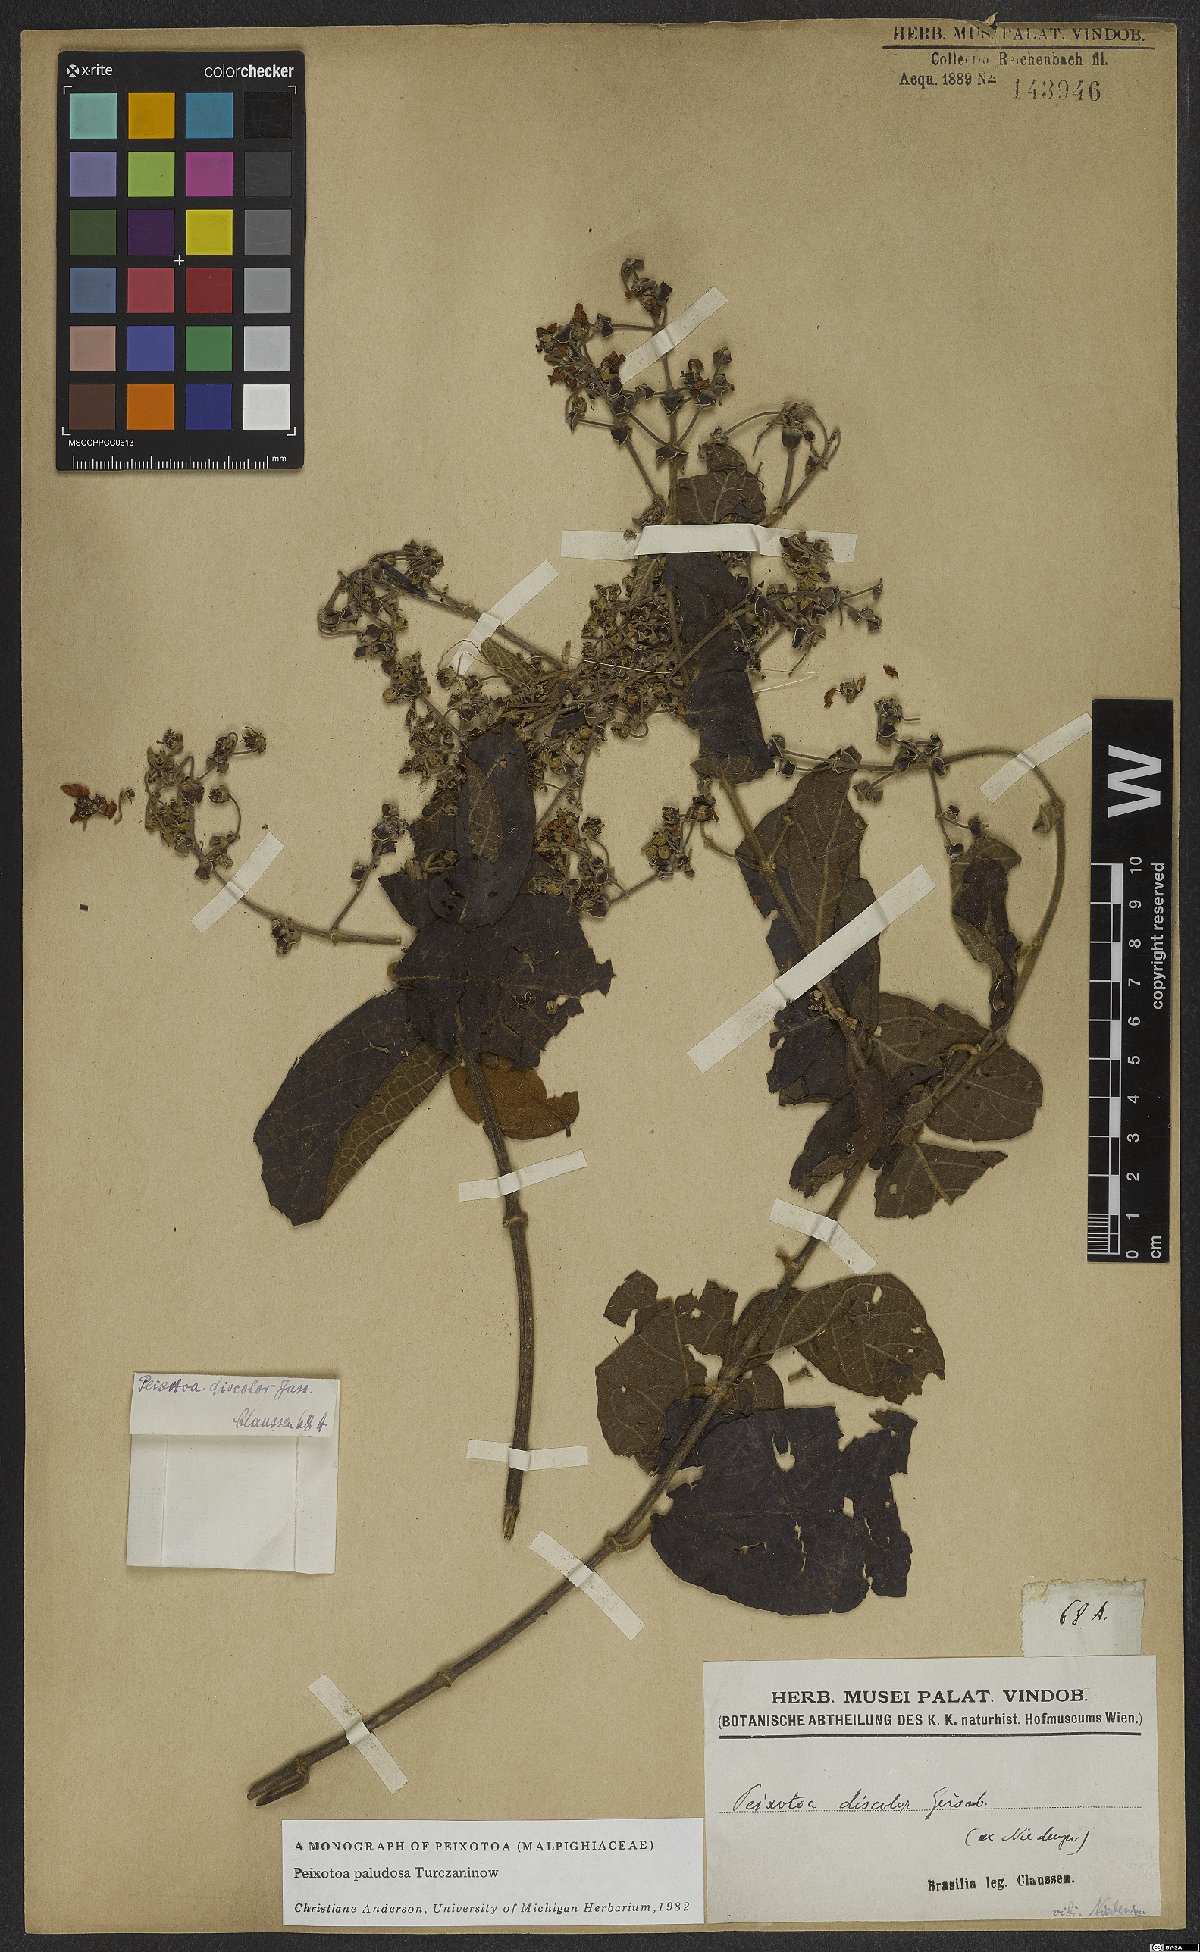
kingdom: Plantae
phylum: Tracheophyta
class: Magnoliopsida
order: Malpighiales
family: Malpighiaceae
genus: Peixotoa
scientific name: Peixotoa paludosa
